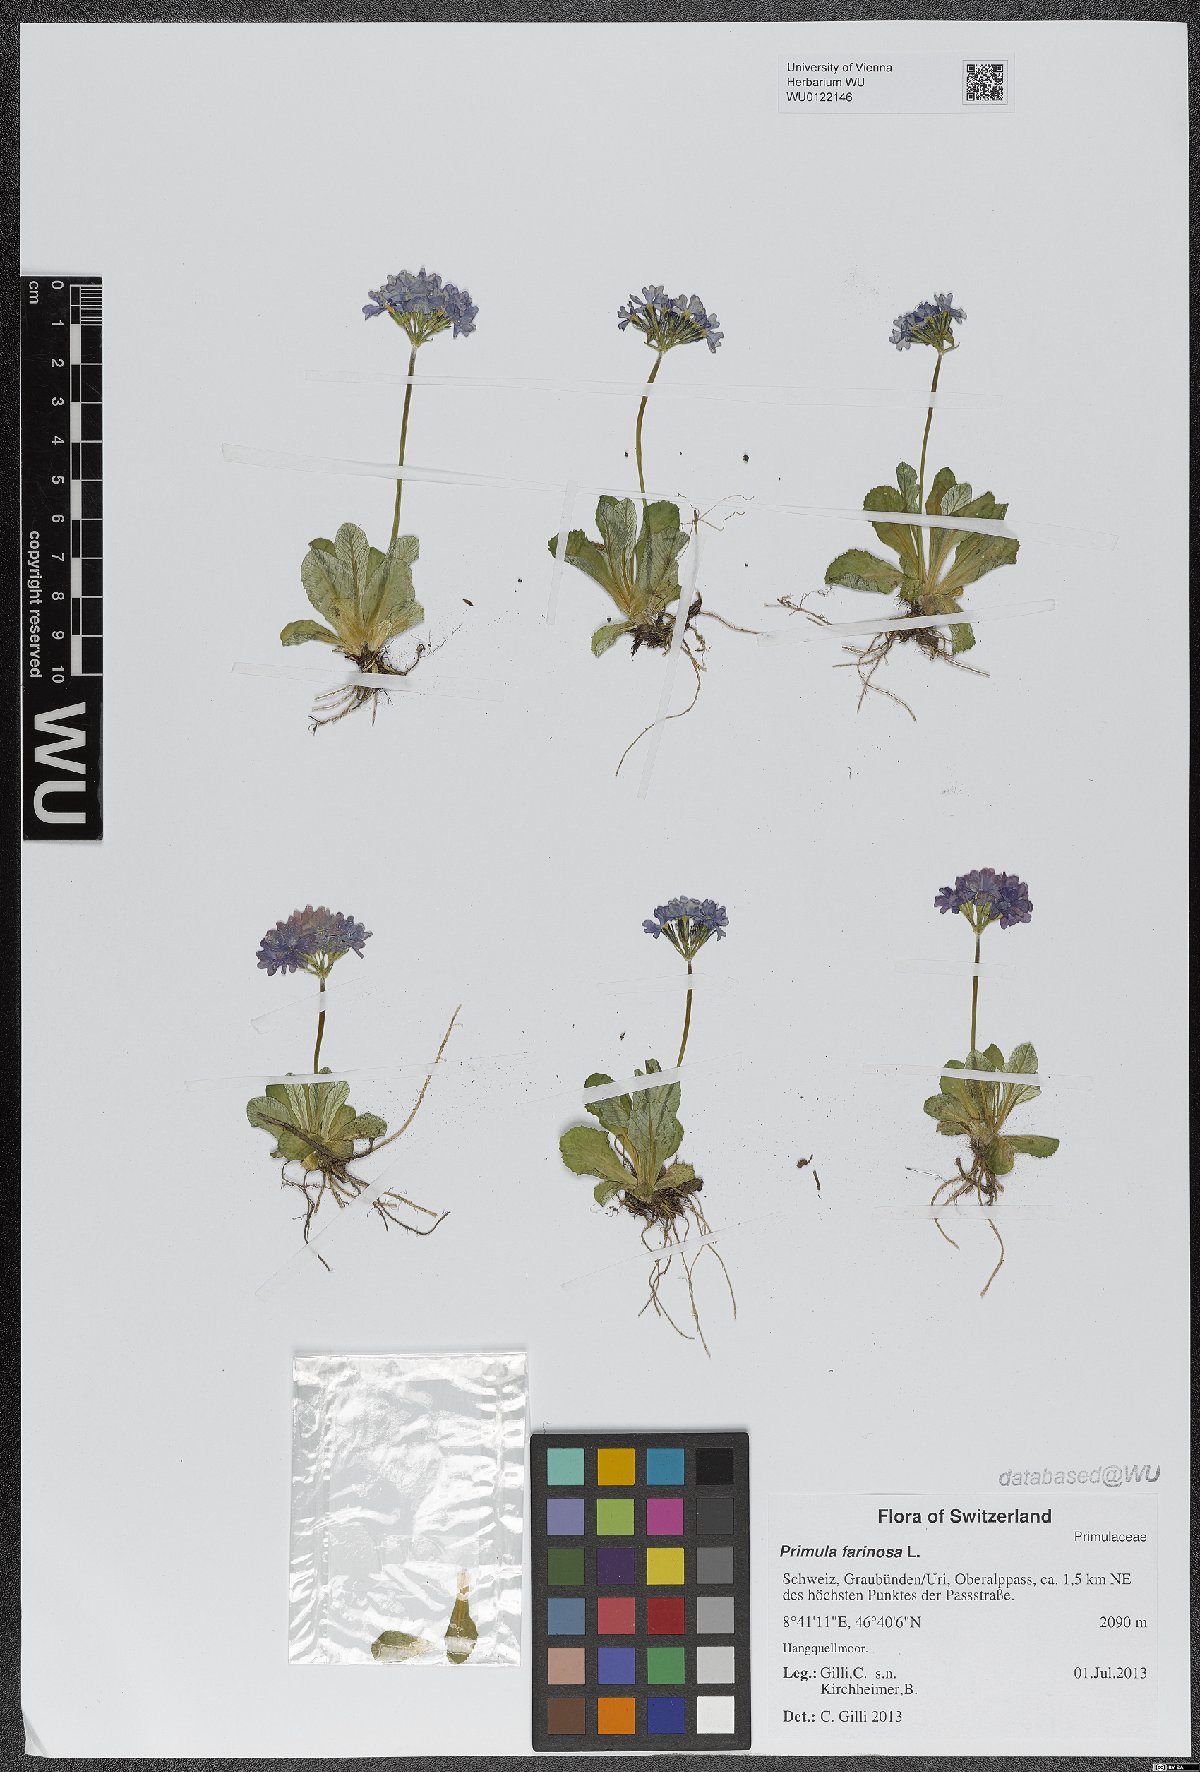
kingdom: Plantae
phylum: Tracheophyta
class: Magnoliopsida
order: Ericales
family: Primulaceae
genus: Primula
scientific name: Primula farinosa
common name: Bird's-eye primrose
